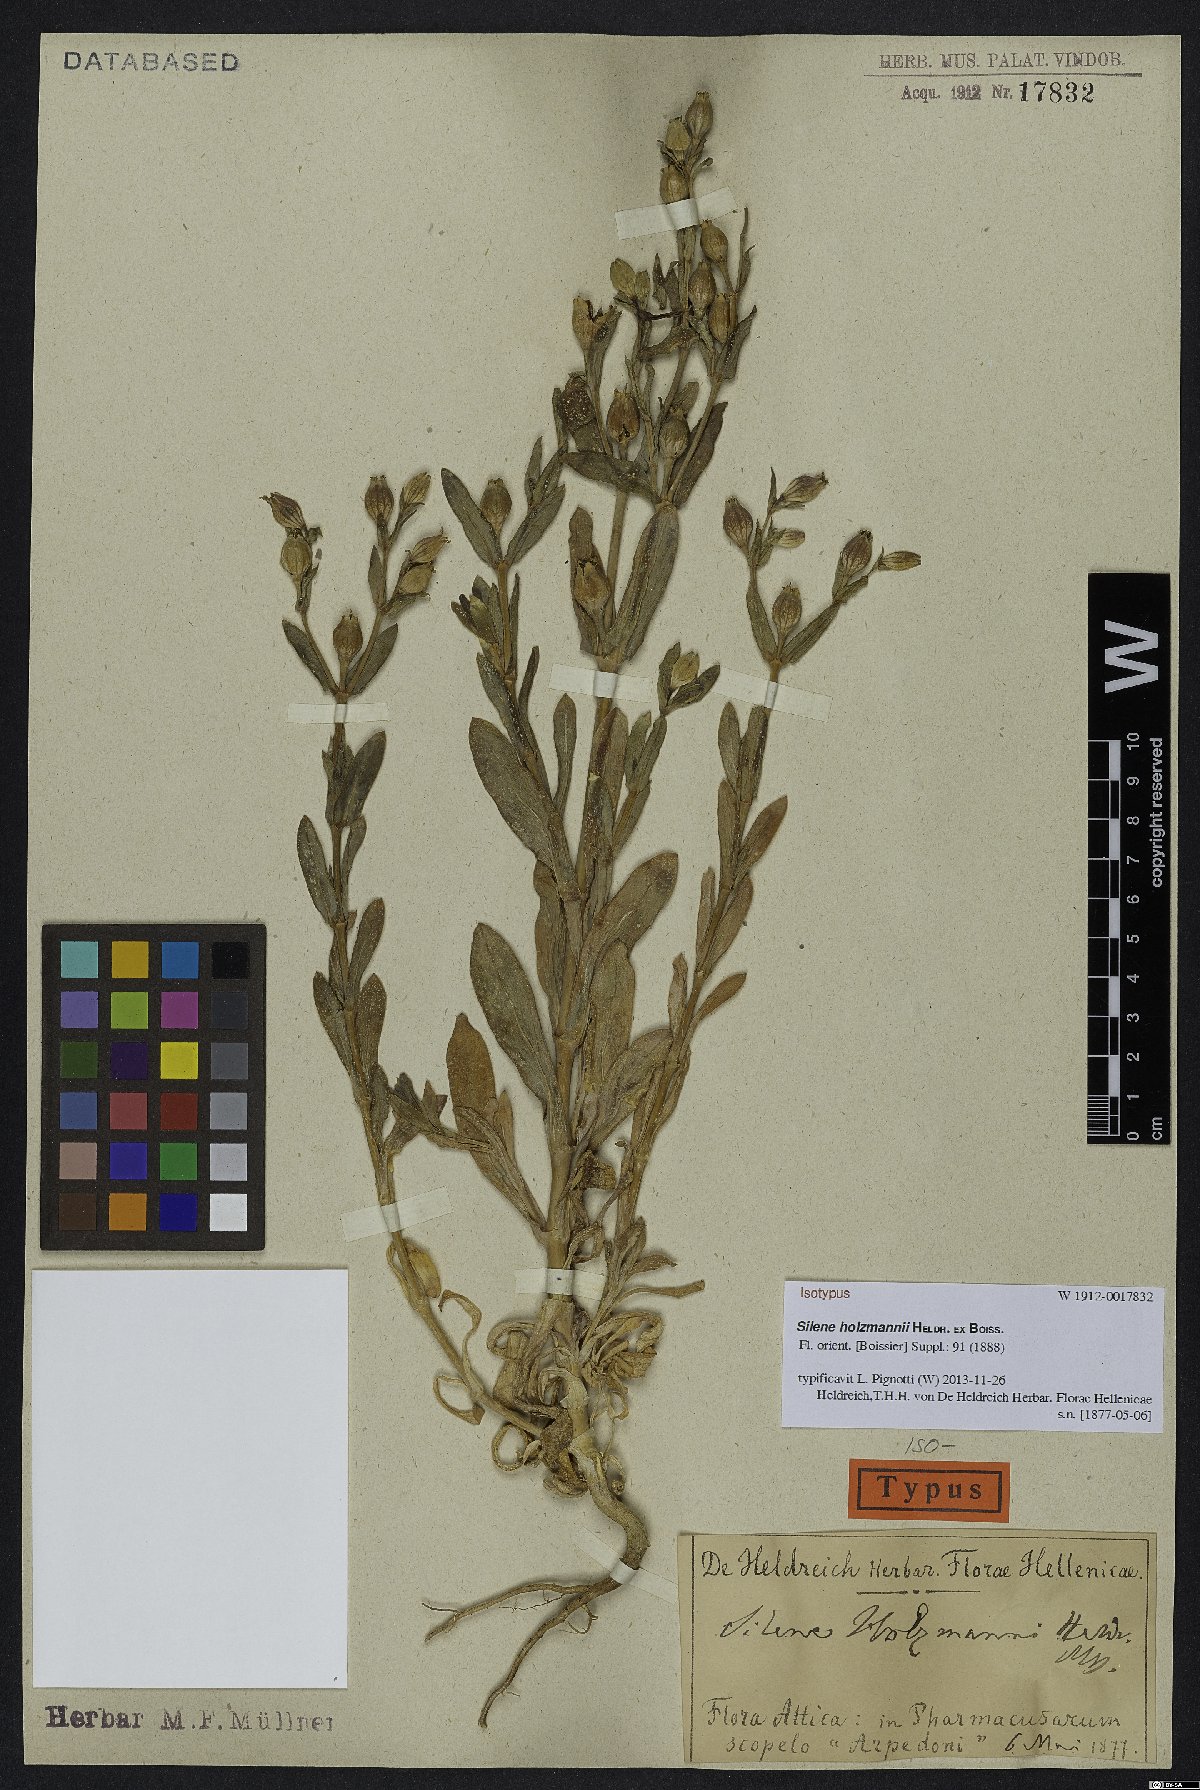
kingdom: Plantae
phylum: Tracheophyta
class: Magnoliopsida
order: Caryophyllales
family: Caryophyllaceae
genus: Silene
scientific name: Silene holzmannii
